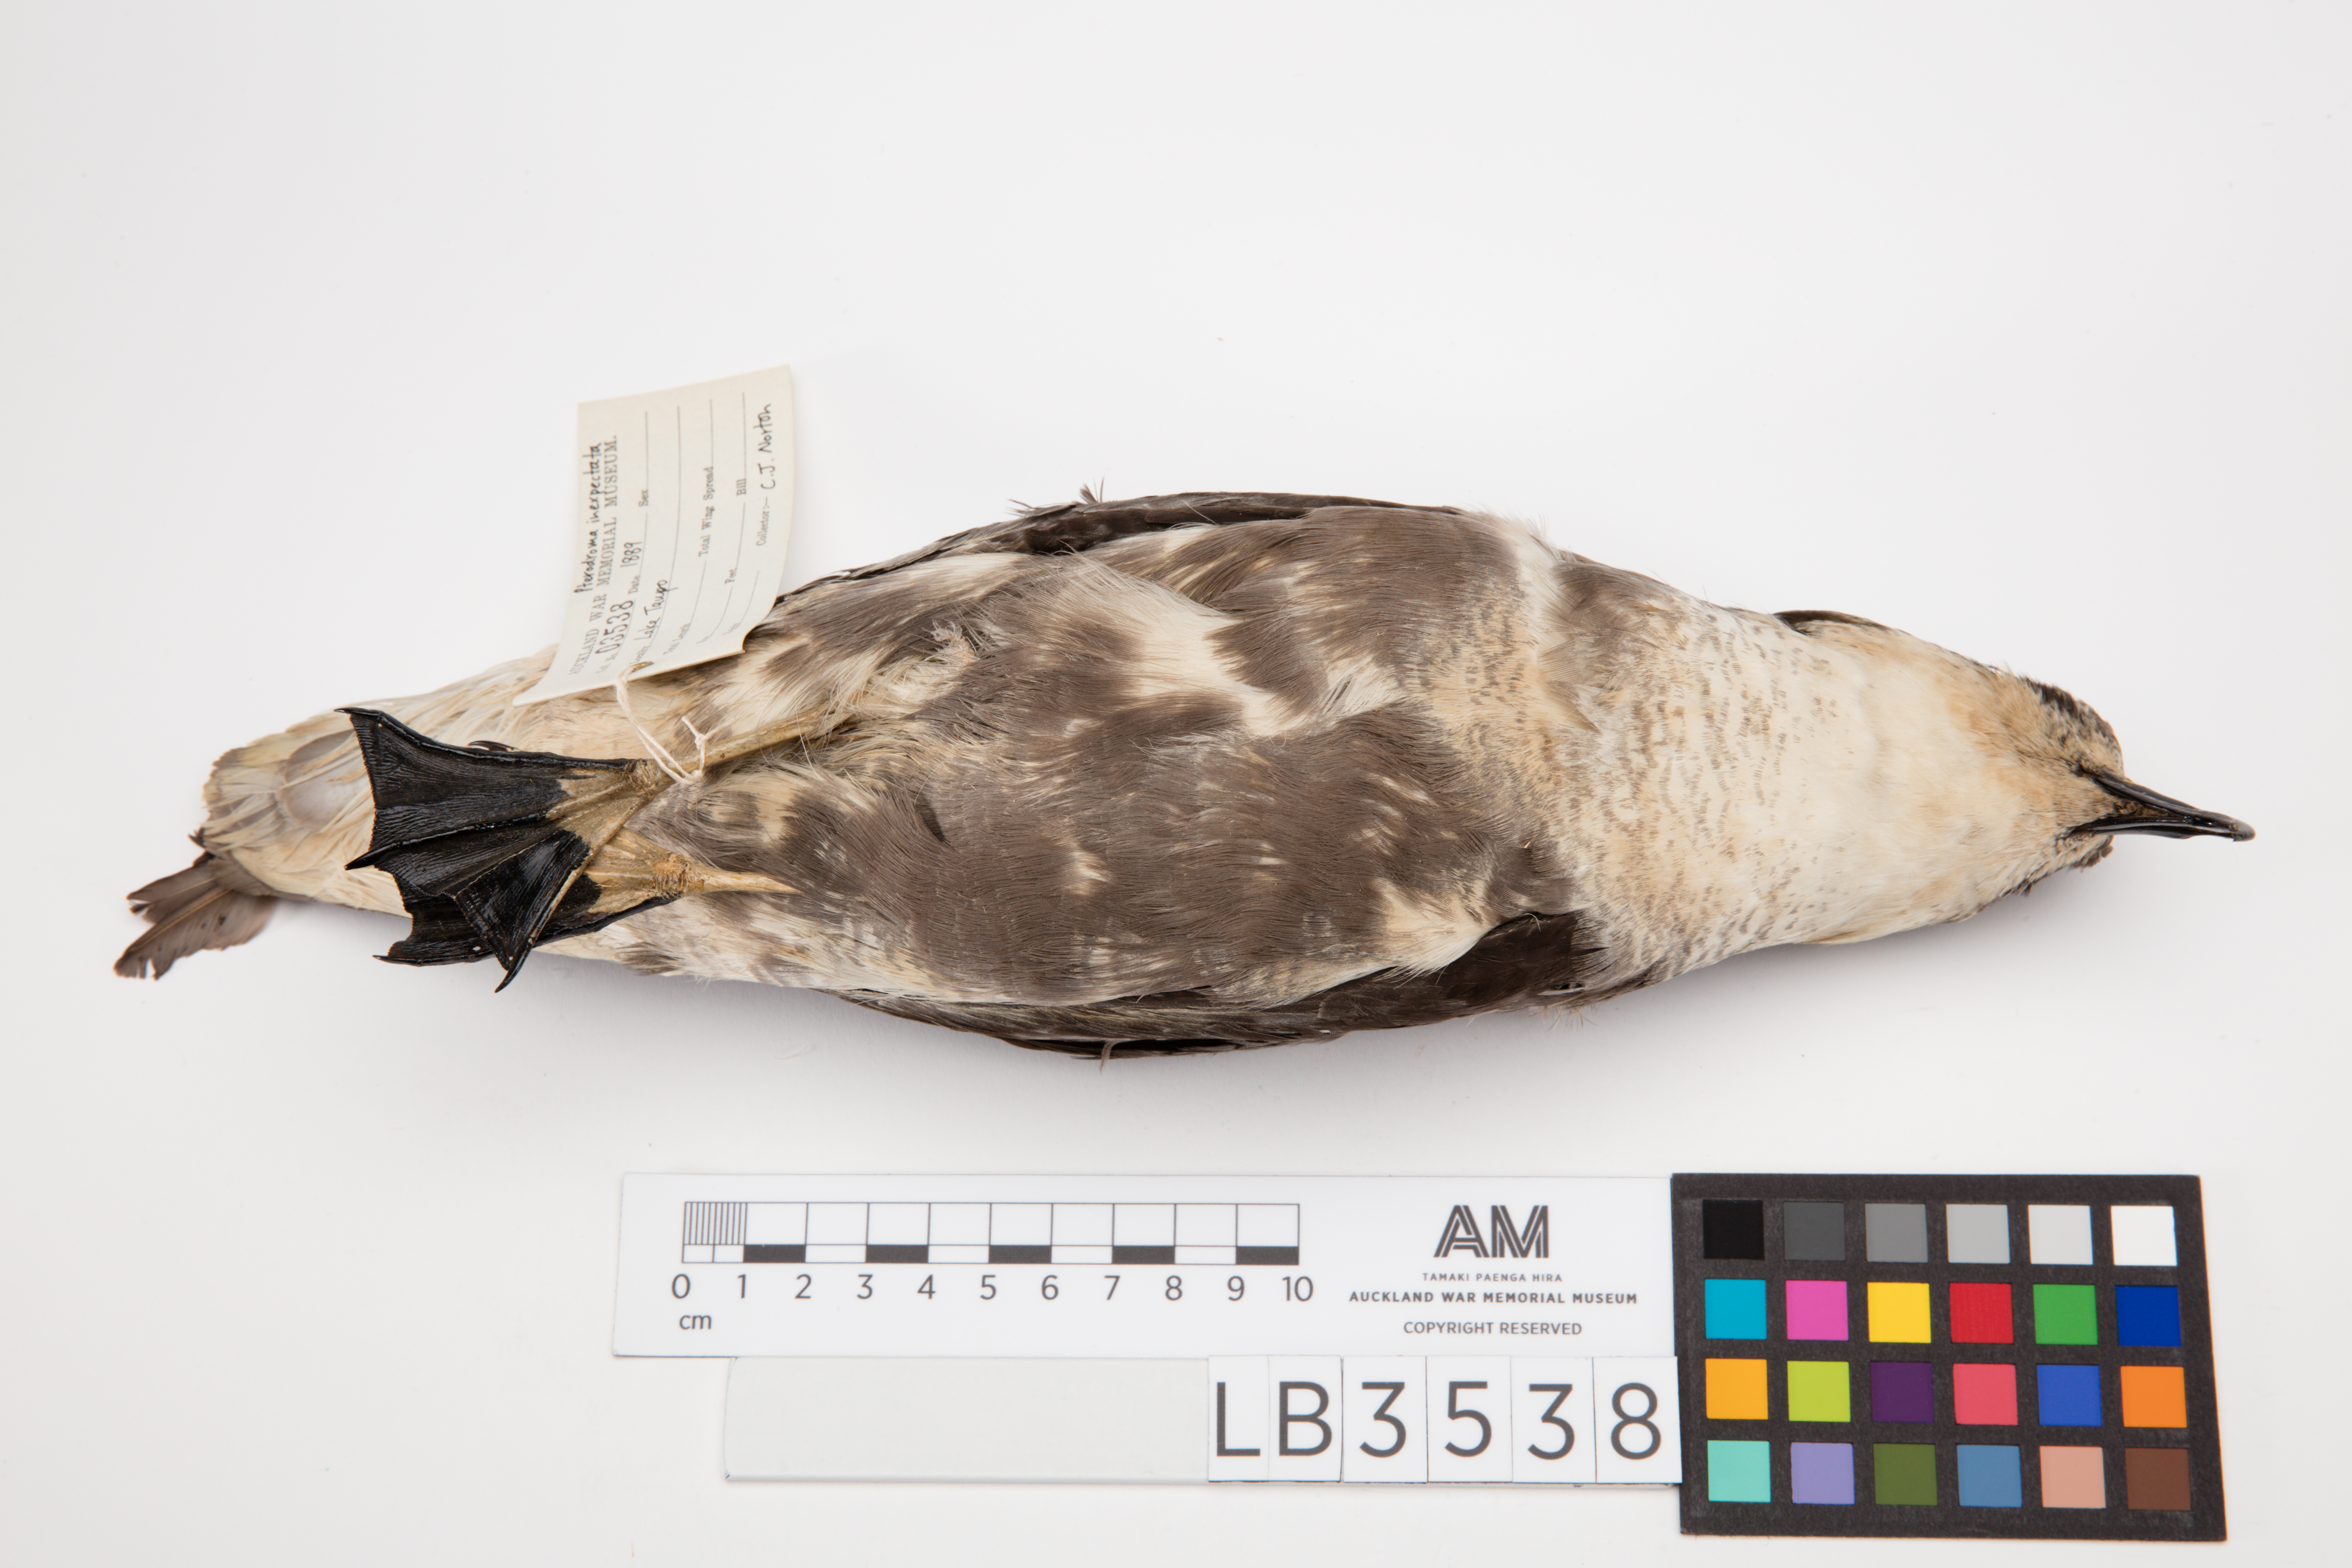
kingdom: Animalia
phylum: Chordata
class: Aves
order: Procellariiformes
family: Procellariidae
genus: Pterodroma
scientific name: Pterodroma inexpectata
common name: Mottled petrel
